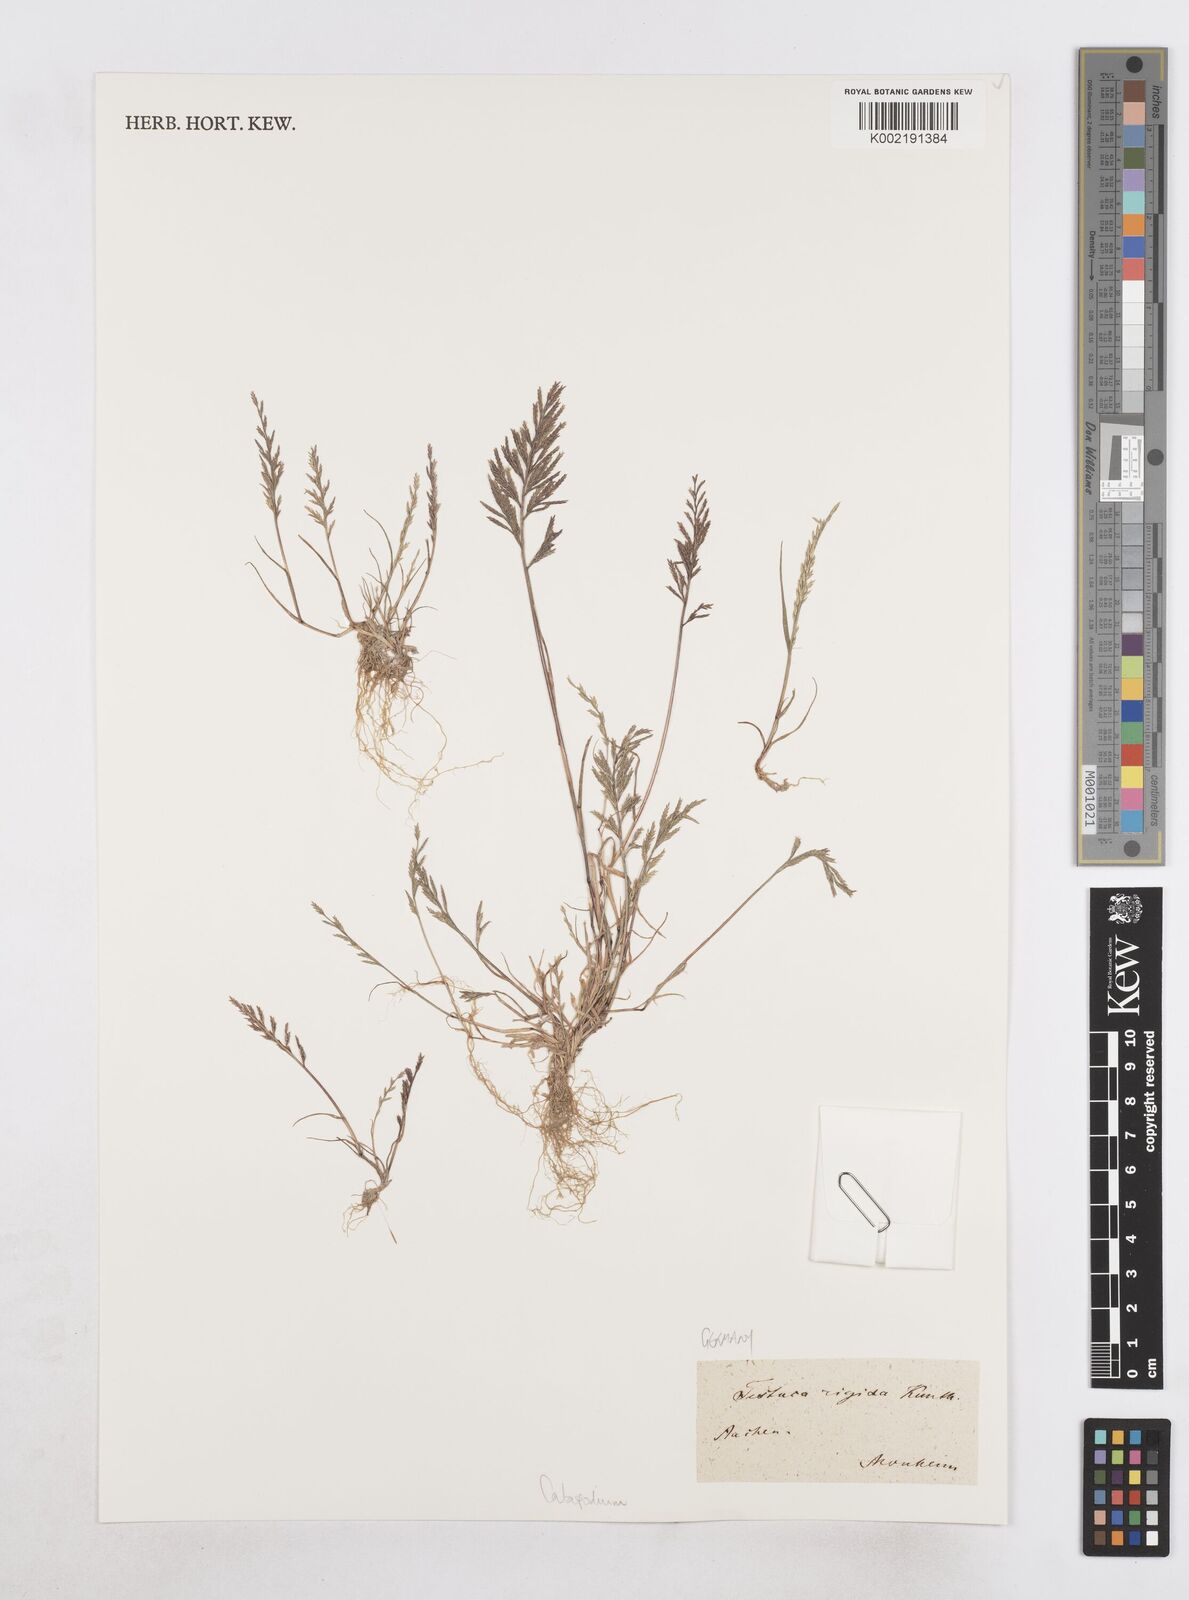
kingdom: Plantae
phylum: Tracheophyta
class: Liliopsida
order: Poales
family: Poaceae
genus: Catapodium
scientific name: Catapodium rigidum
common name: Fern-grass
